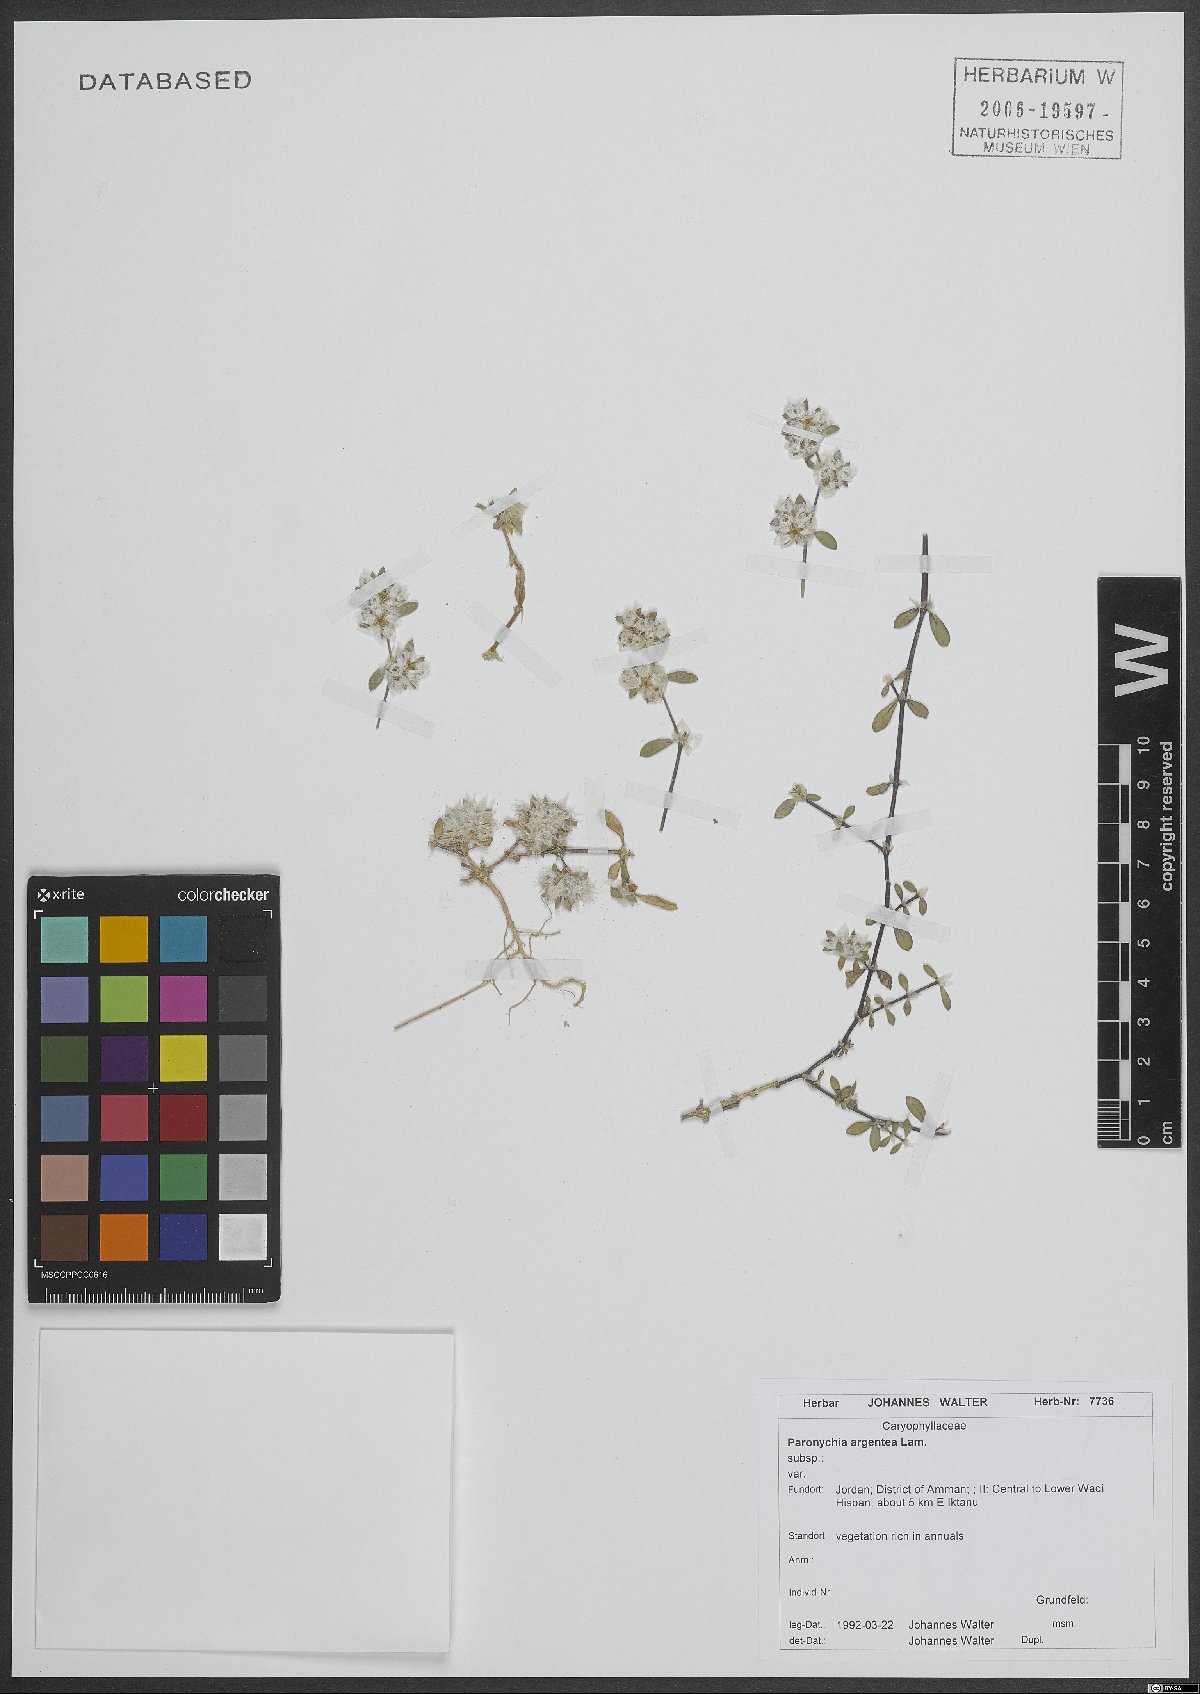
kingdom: Plantae
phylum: Tracheophyta
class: Magnoliopsida
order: Caryophyllales
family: Caryophyllaceae
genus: Paronychia
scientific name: Paronychia argentea
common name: Silver nailroot
